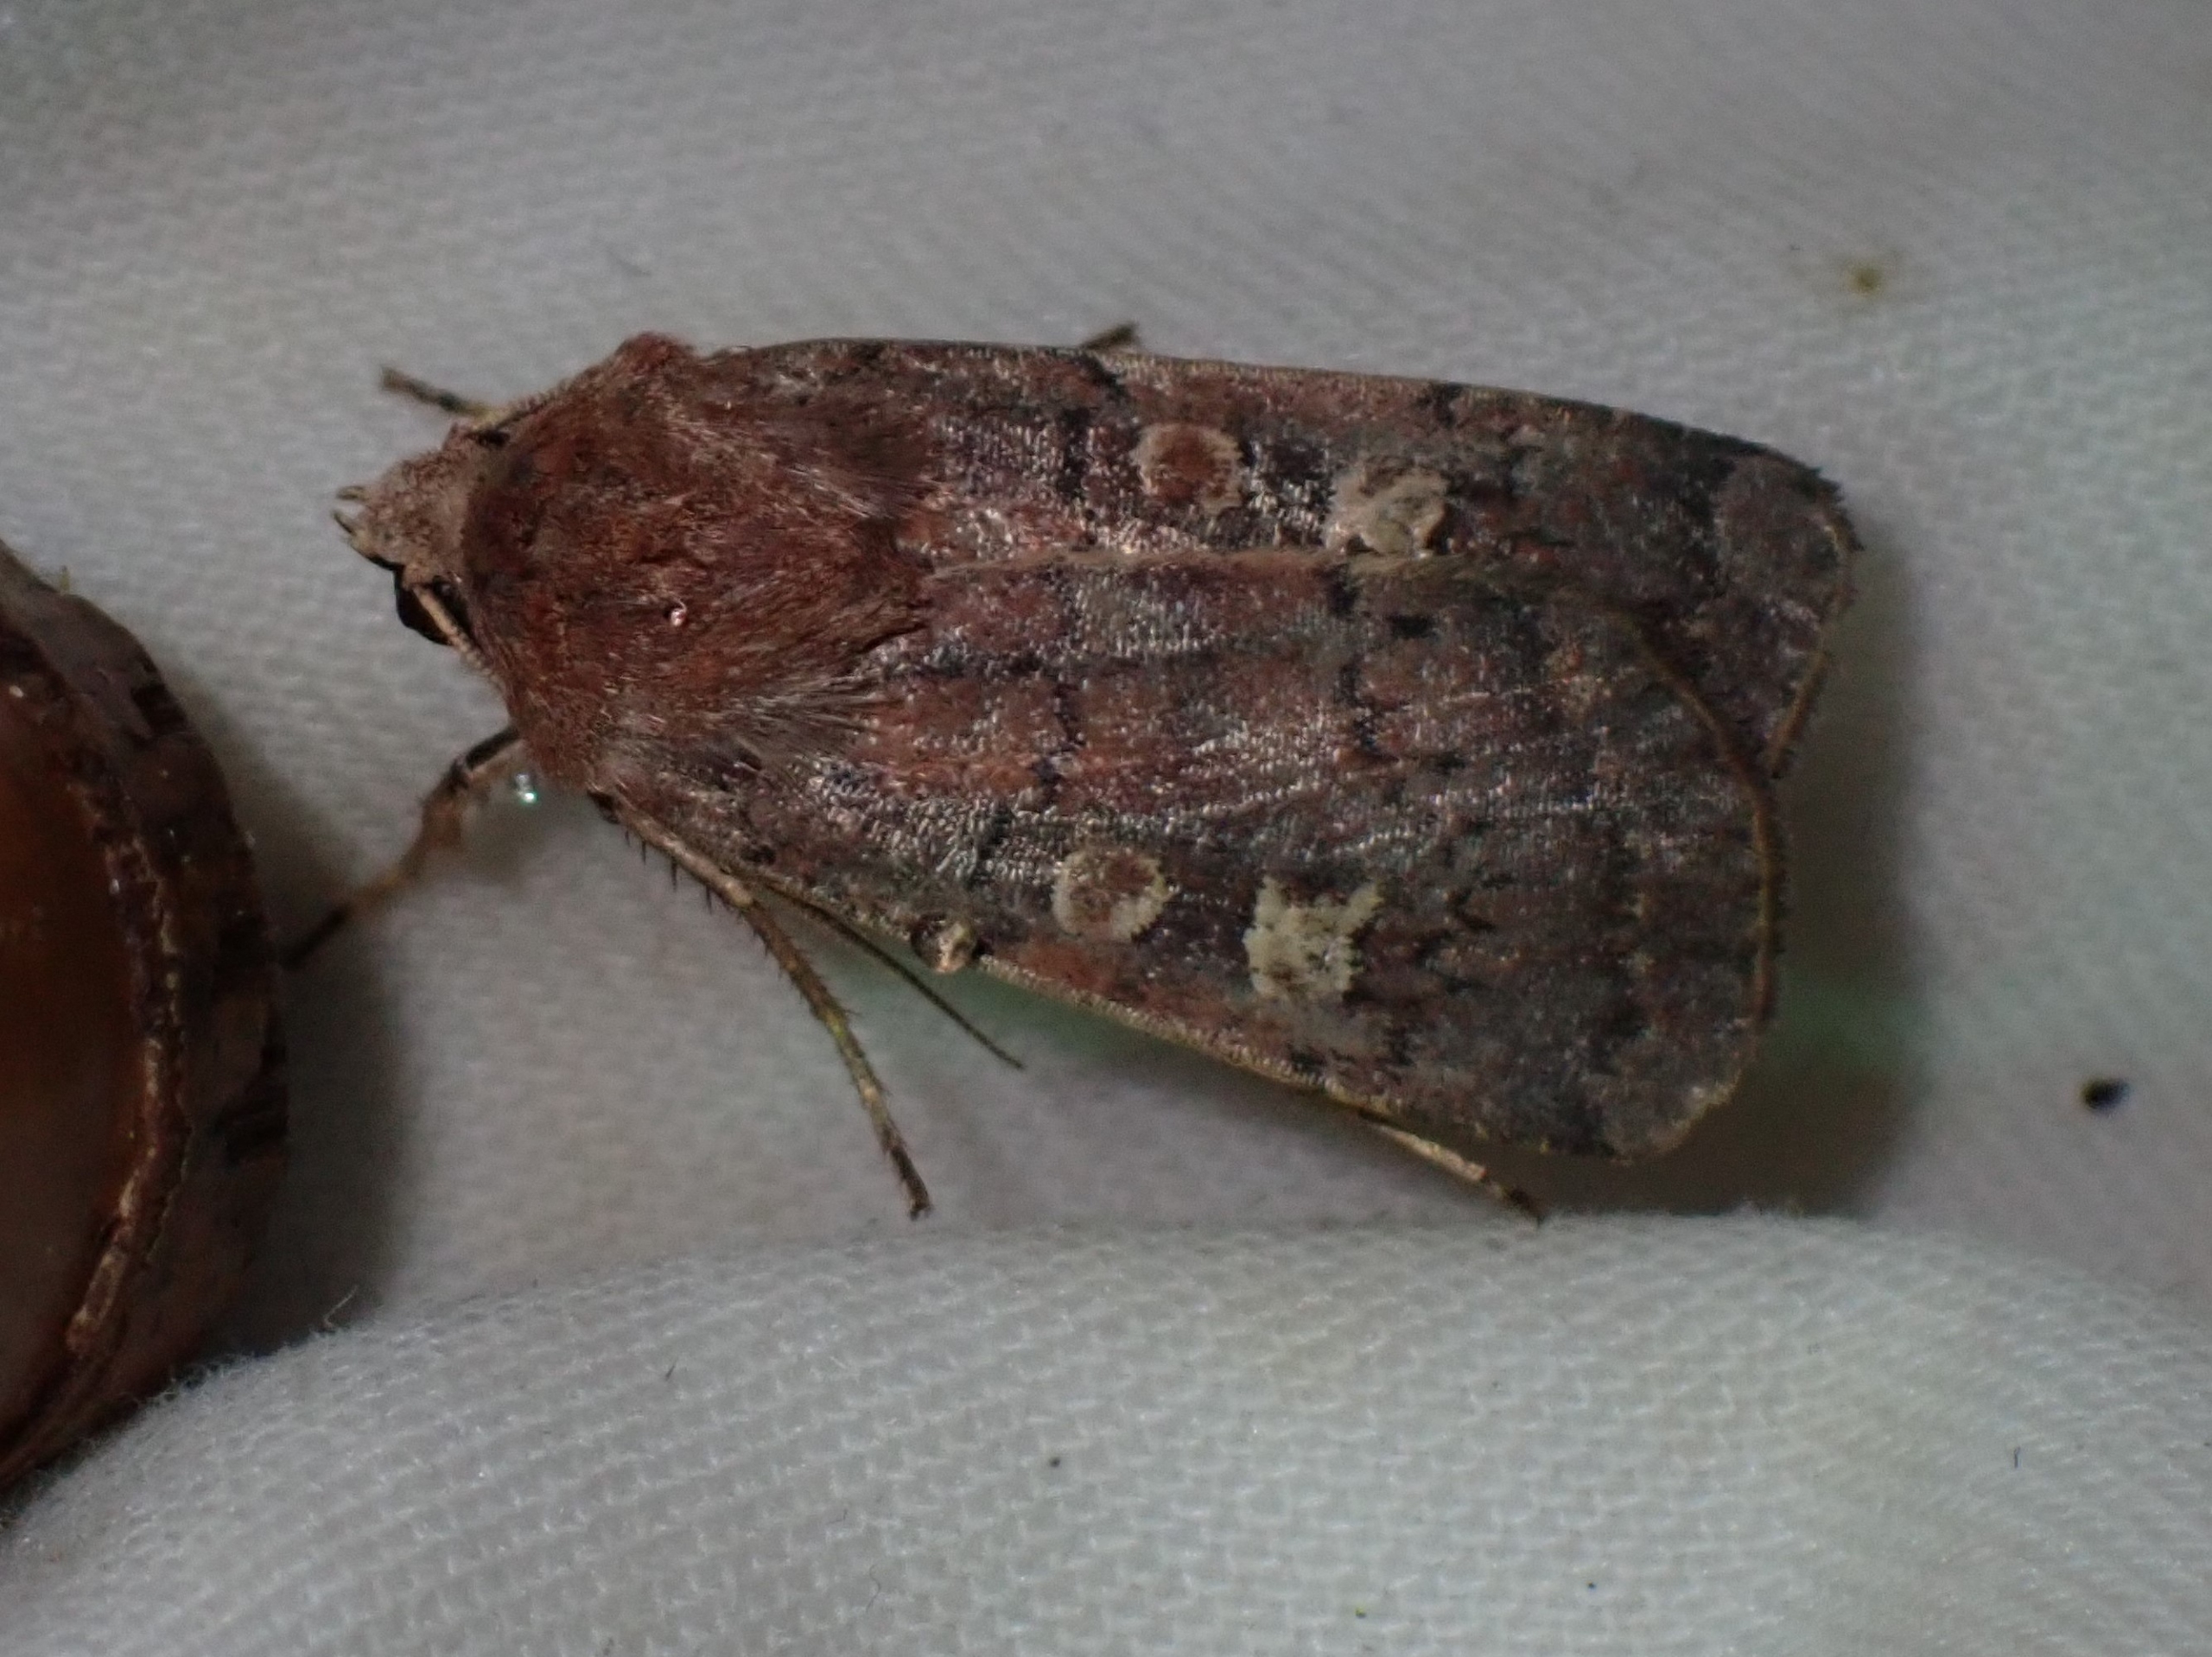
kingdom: Animalia
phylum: Arthropoda
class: Insecta
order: Lepidoptera
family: Noctuidae
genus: Xestia
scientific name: Xestia xanthographa
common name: Gulmærket glansugle
